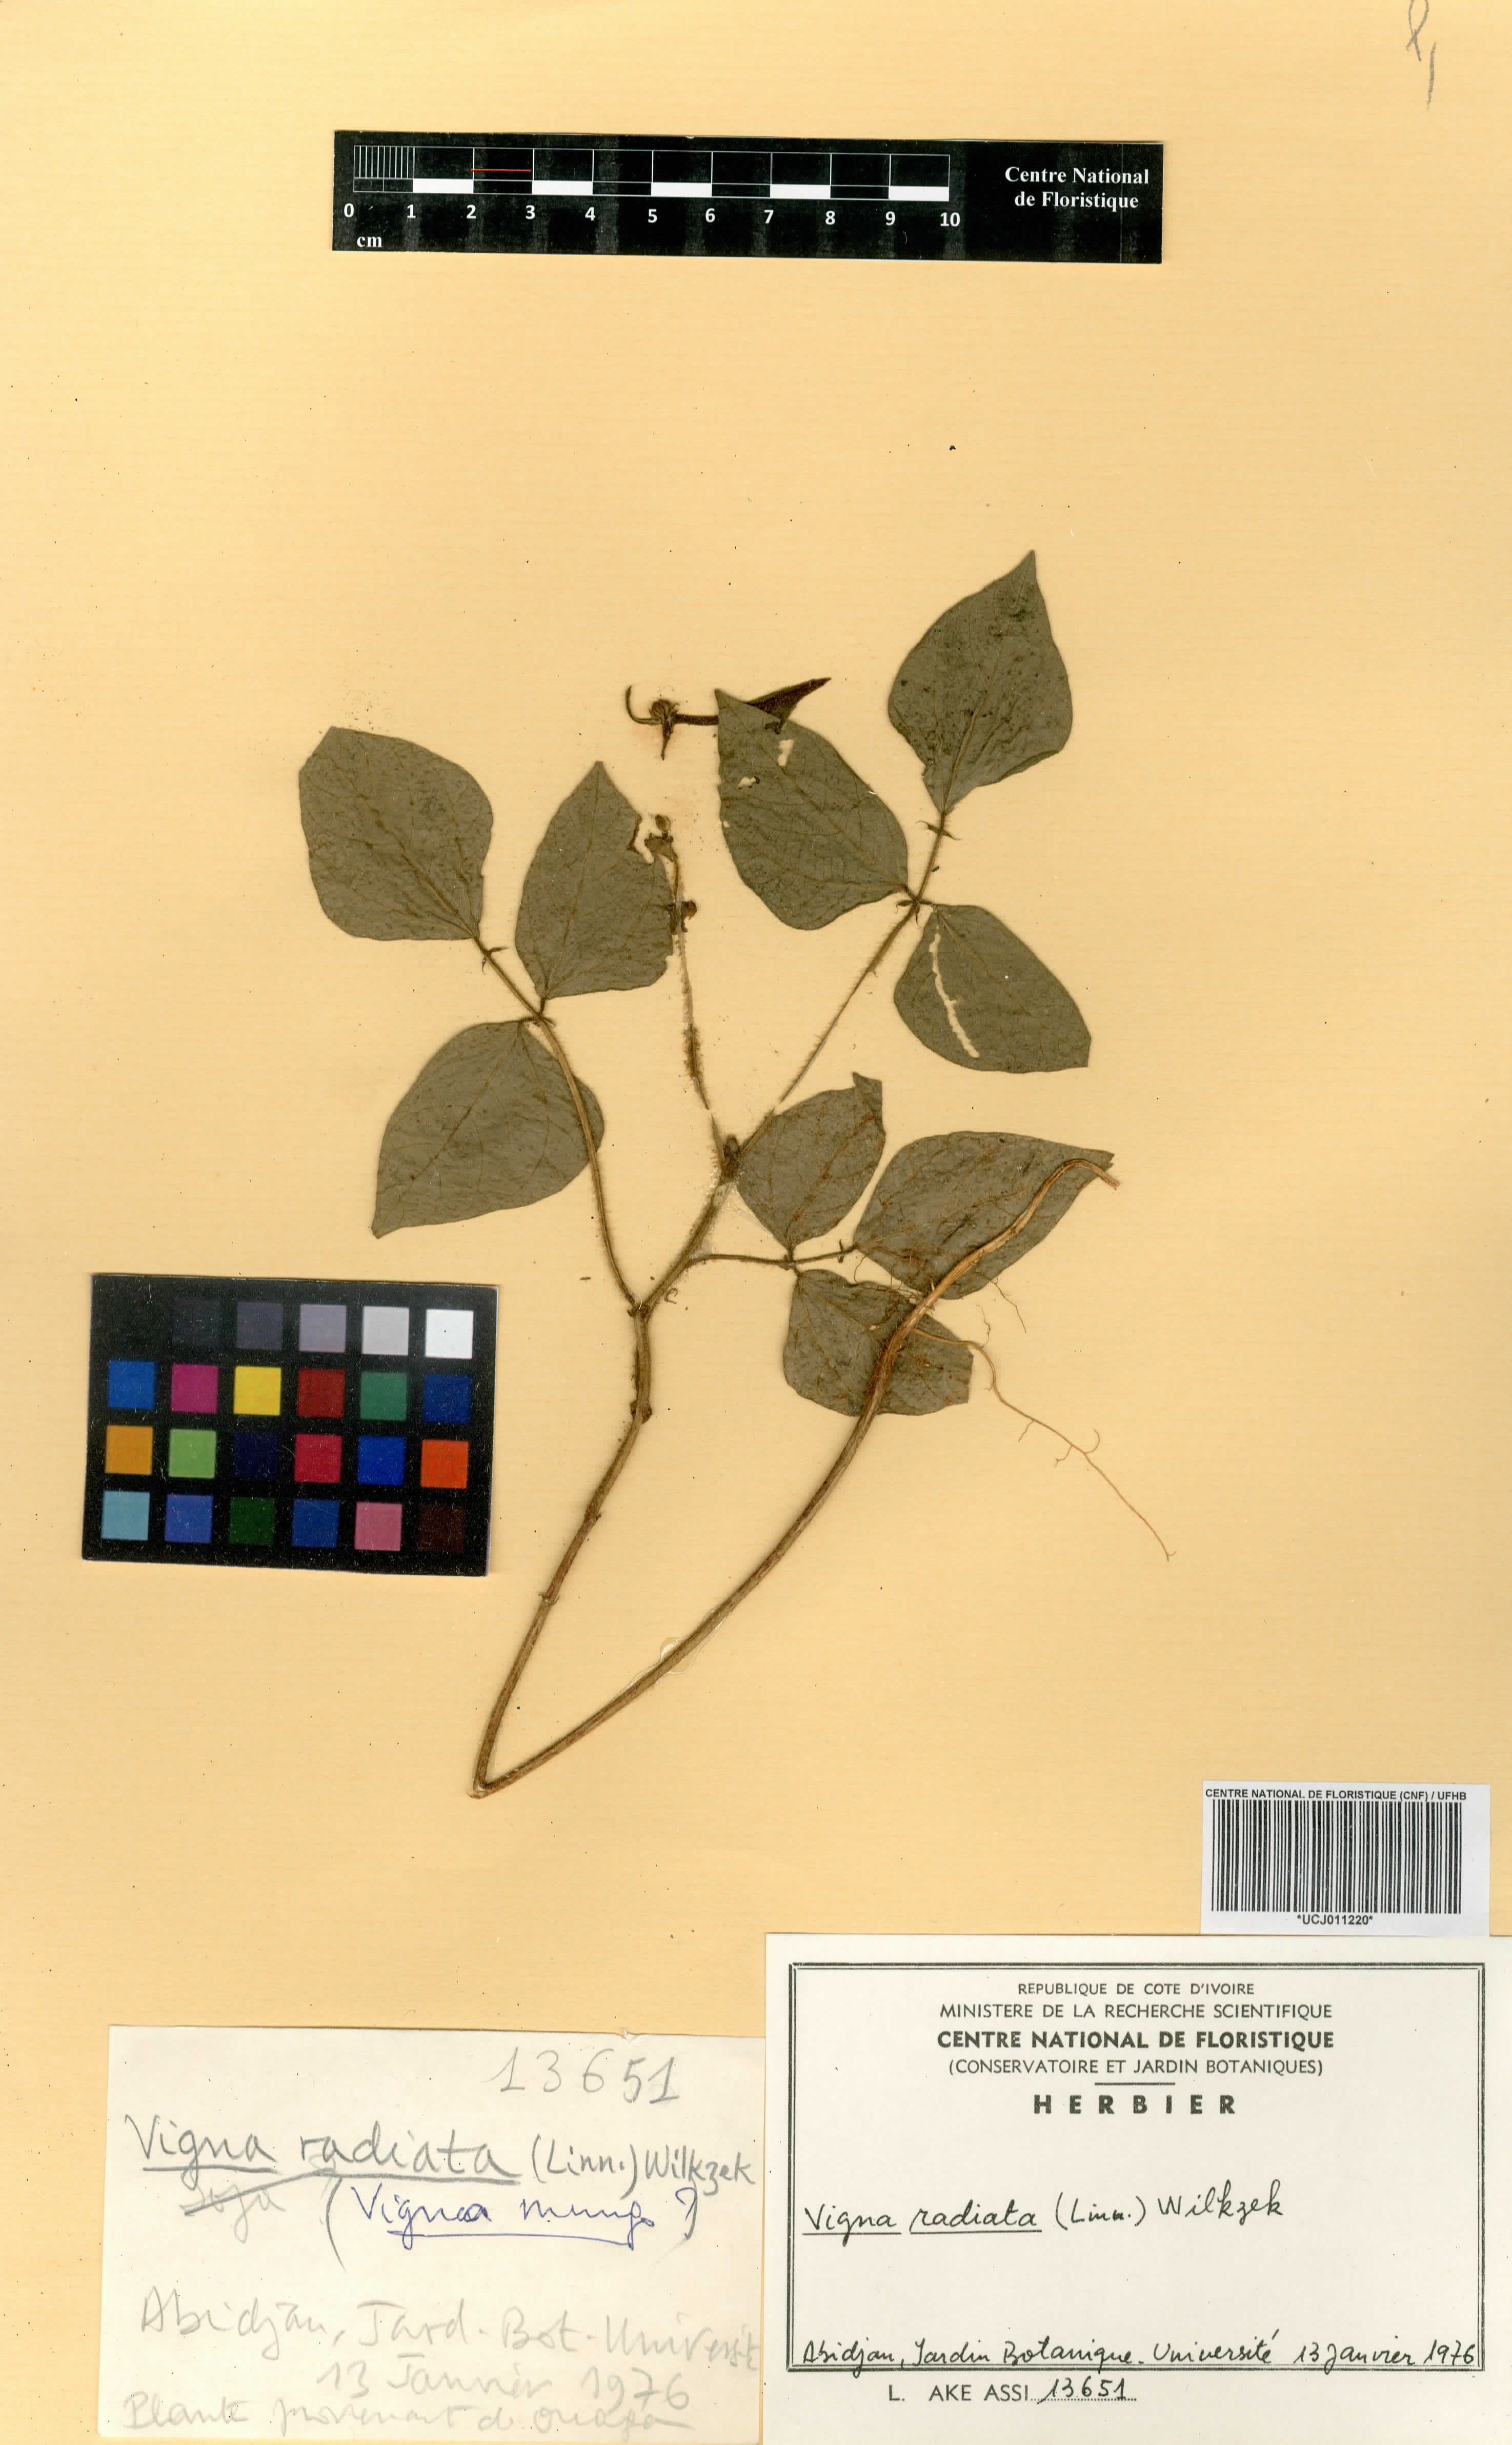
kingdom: Plantae
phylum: Tracheophyta
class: Magnoliopsida
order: Fabales
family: Fabaceae
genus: Vigna
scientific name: Vigna radiata
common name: Mung-bean
